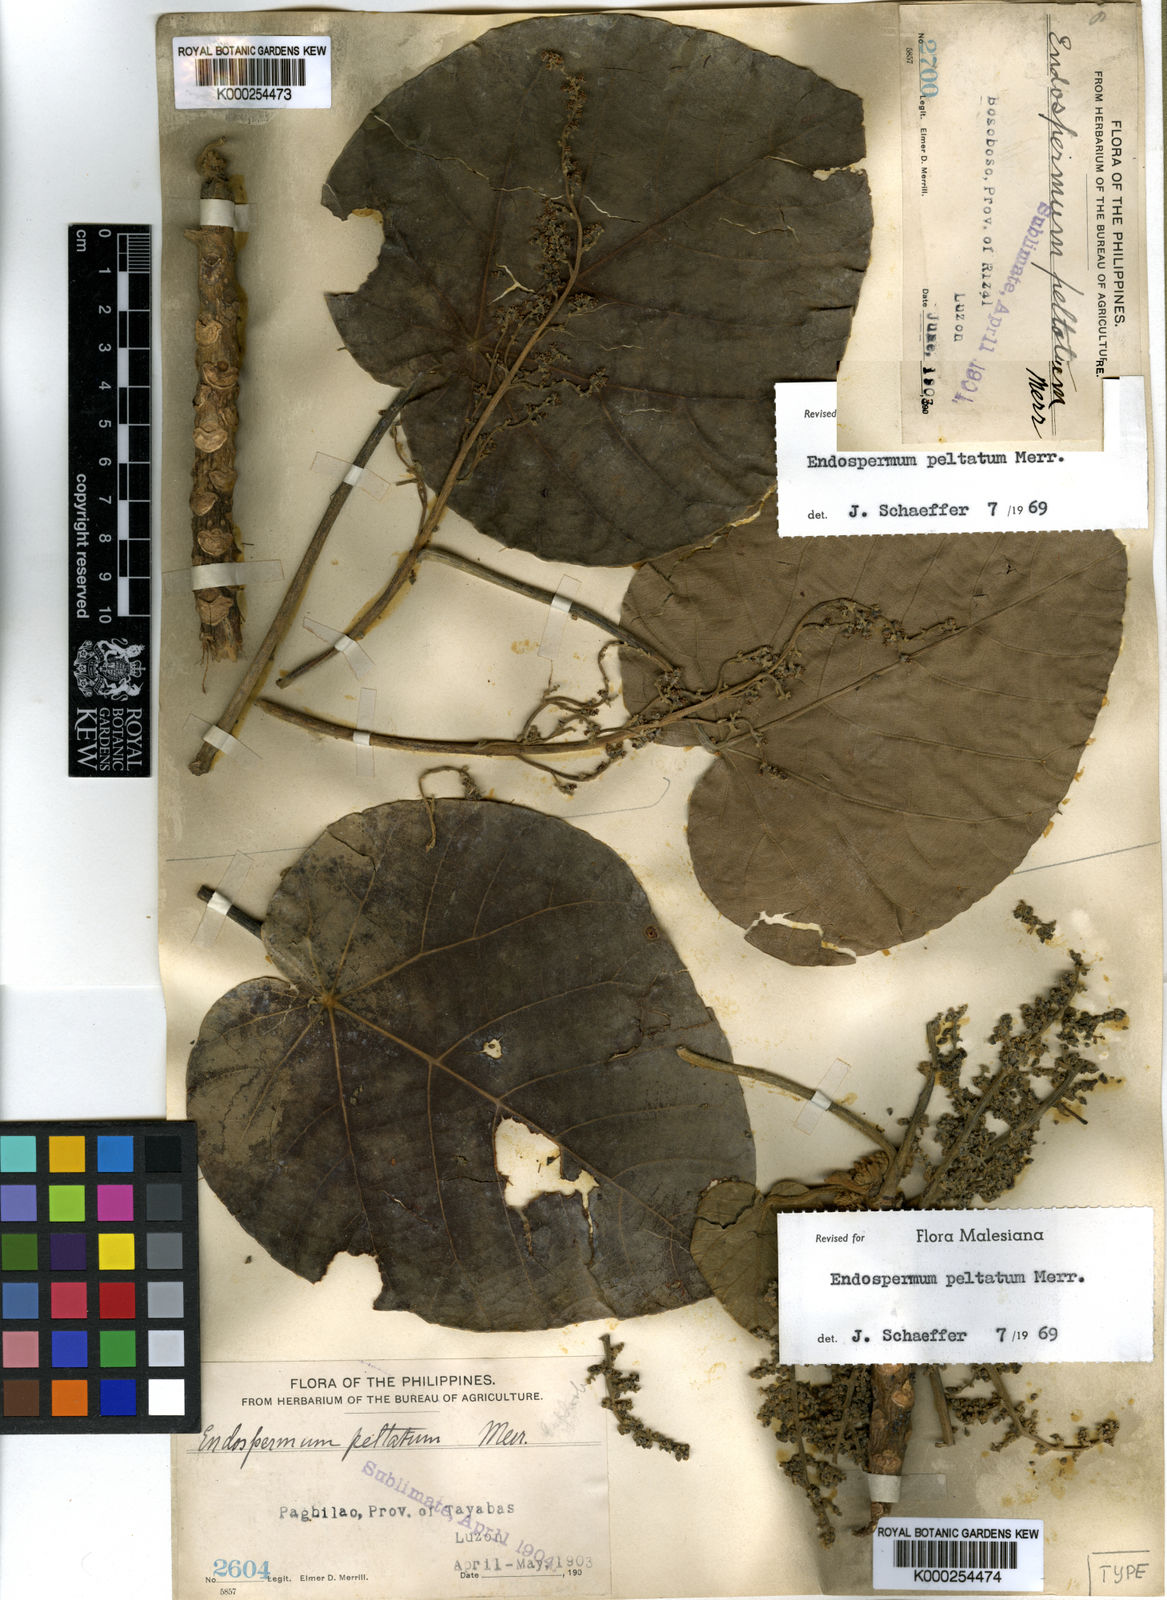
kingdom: Plantae
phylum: Tracheophyta
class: Magnoliopsida
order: Malpighiales
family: Euphorbiaceae
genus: Endospermum
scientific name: Endospermum peltatum
